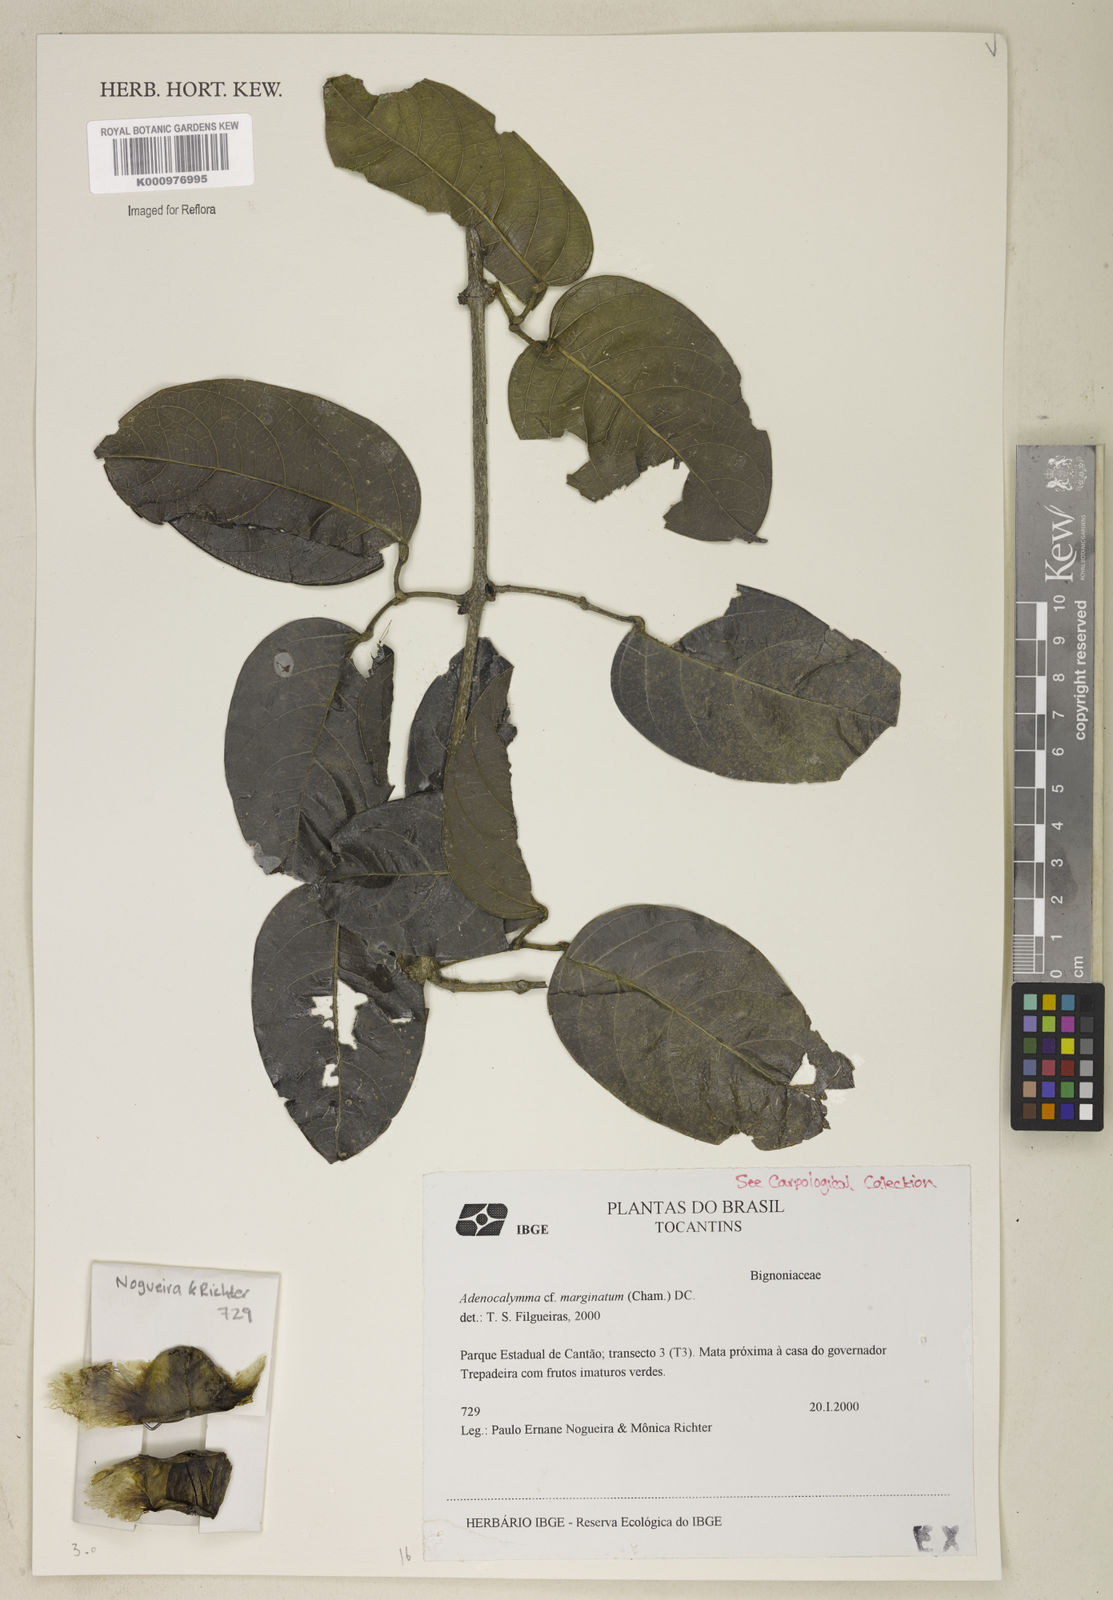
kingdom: Plantae
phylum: Tracheophyta
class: Magnoliopsida
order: Lamiales
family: Bignoniaceae
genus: Adenocalymma
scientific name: Adenocalymma marginatum
